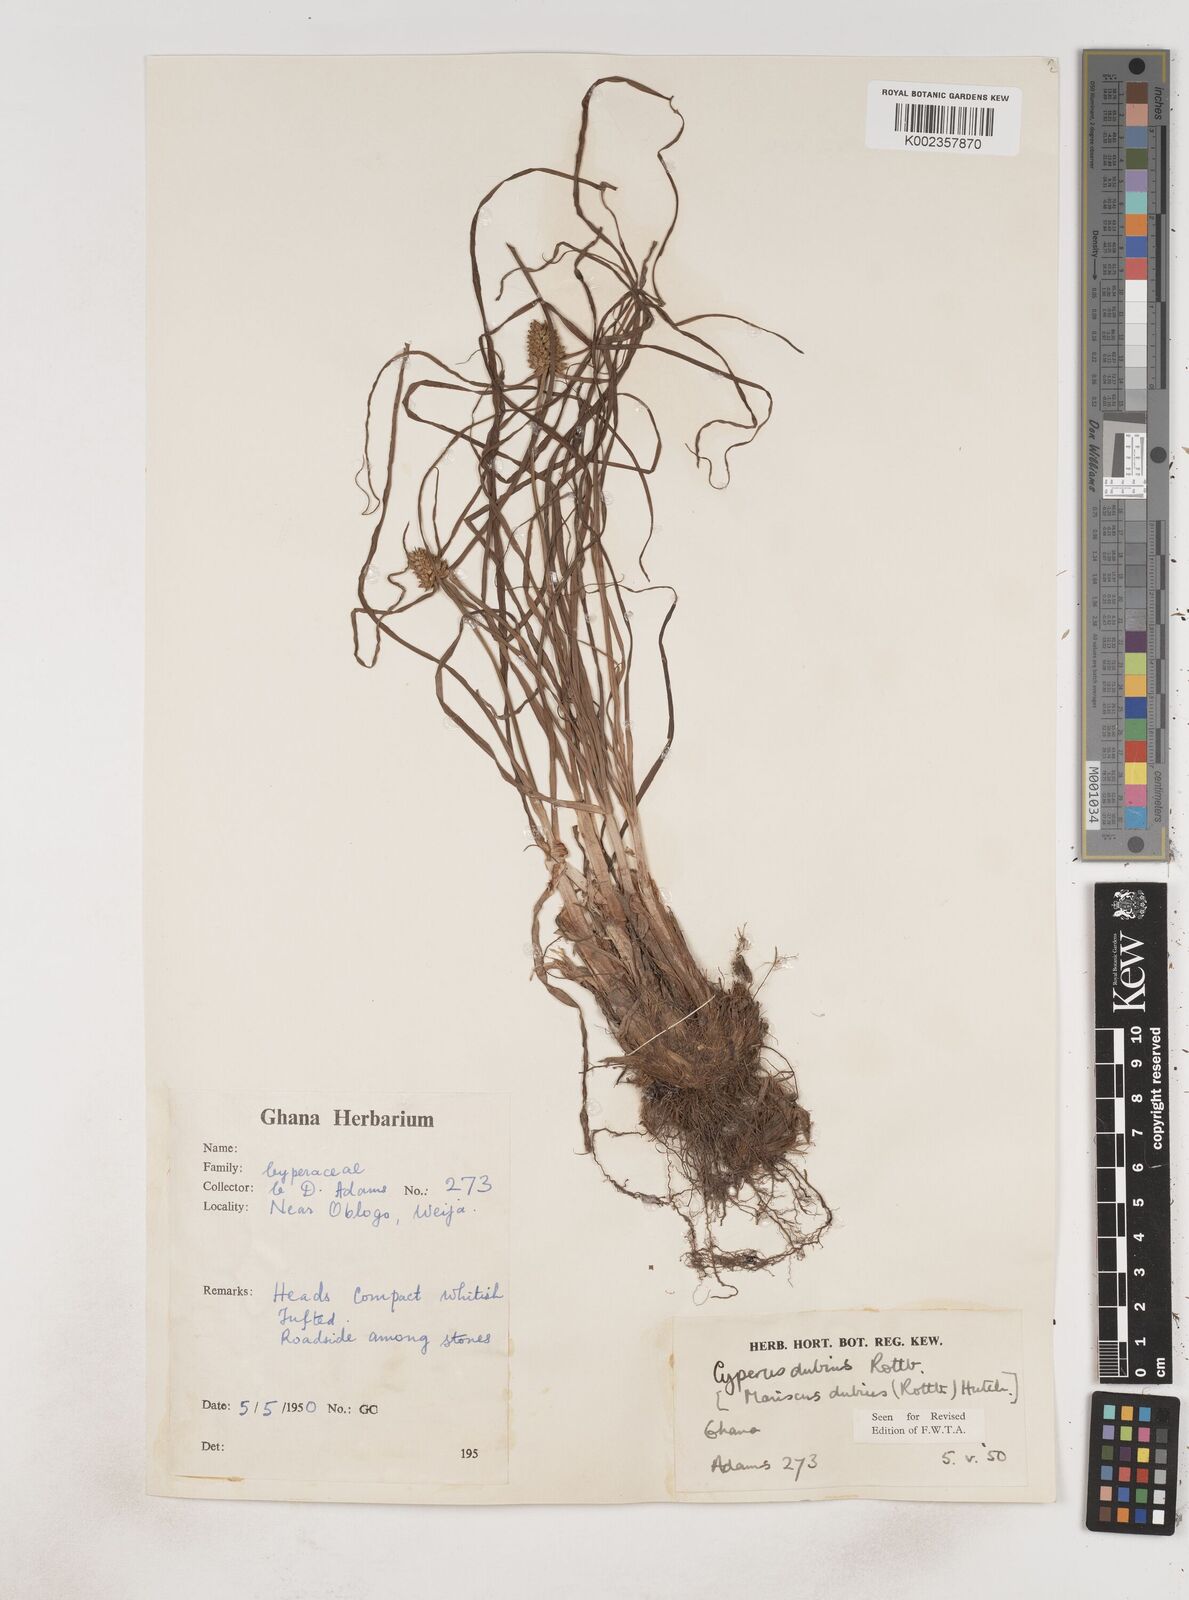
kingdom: Plantae
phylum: Tracheophyta
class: Liliopsida
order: Poales
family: Cyperaceae
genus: Cyperus
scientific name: Cyperus dubius
